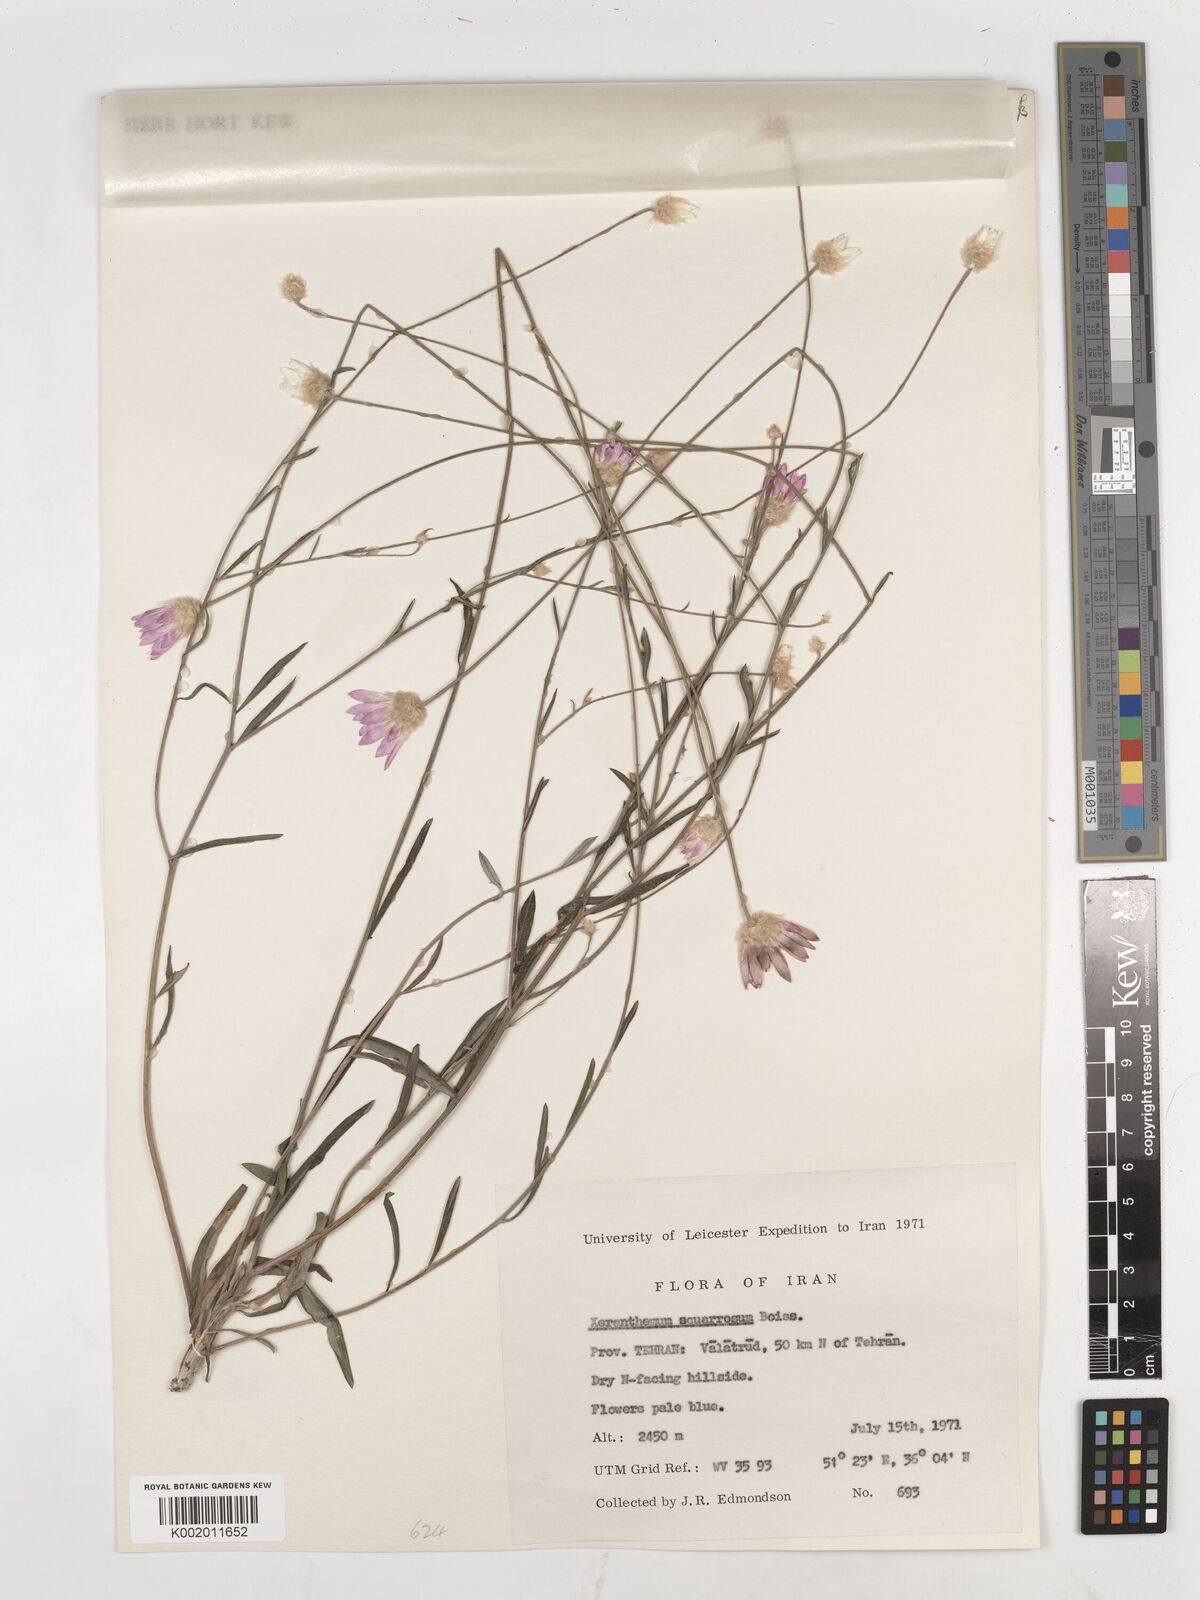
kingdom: Plantae
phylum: Tracheophyta
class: Magnoliopsida
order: Asterales
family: Asteraceae
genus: Xeranthemum
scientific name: Xeranthemum squarrosum
